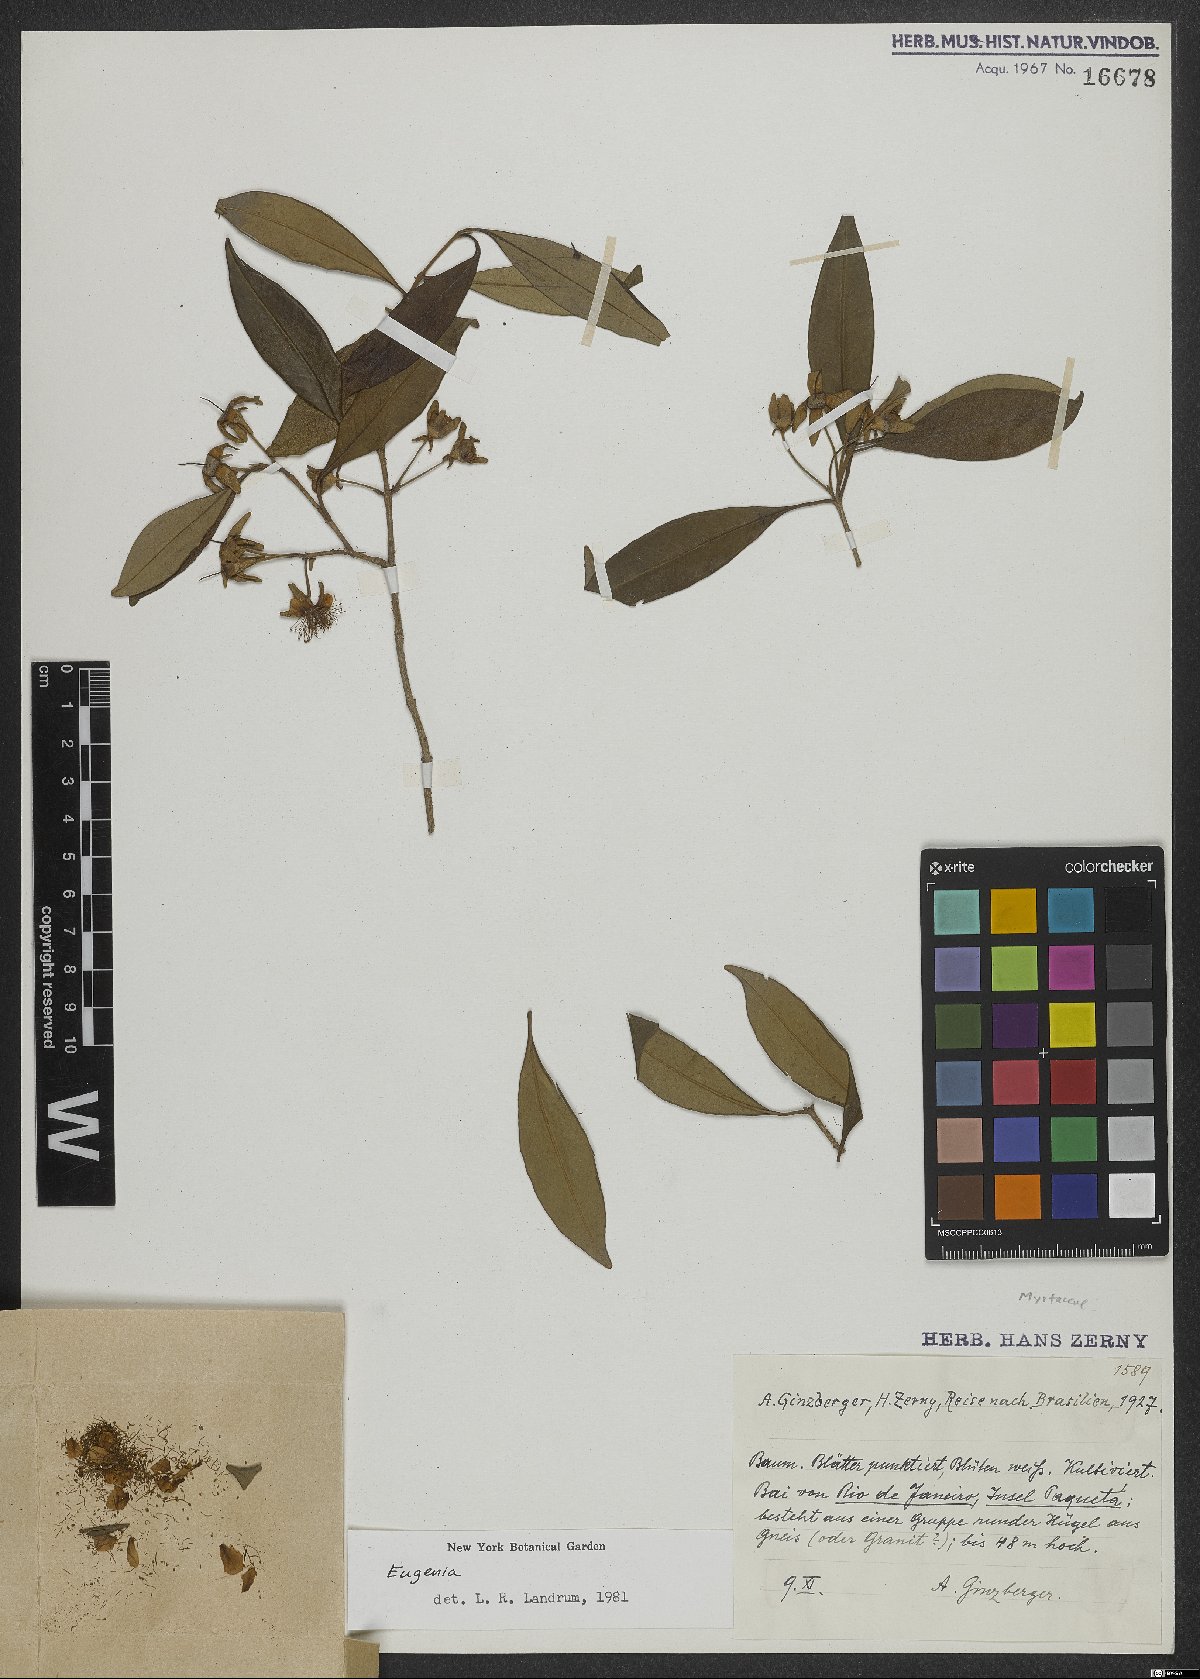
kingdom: Plantae
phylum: Tracheophyta
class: Magnoliopsida
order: Myrtales
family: Myrtaceae
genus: Eugenia
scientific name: Eugenia expansa
